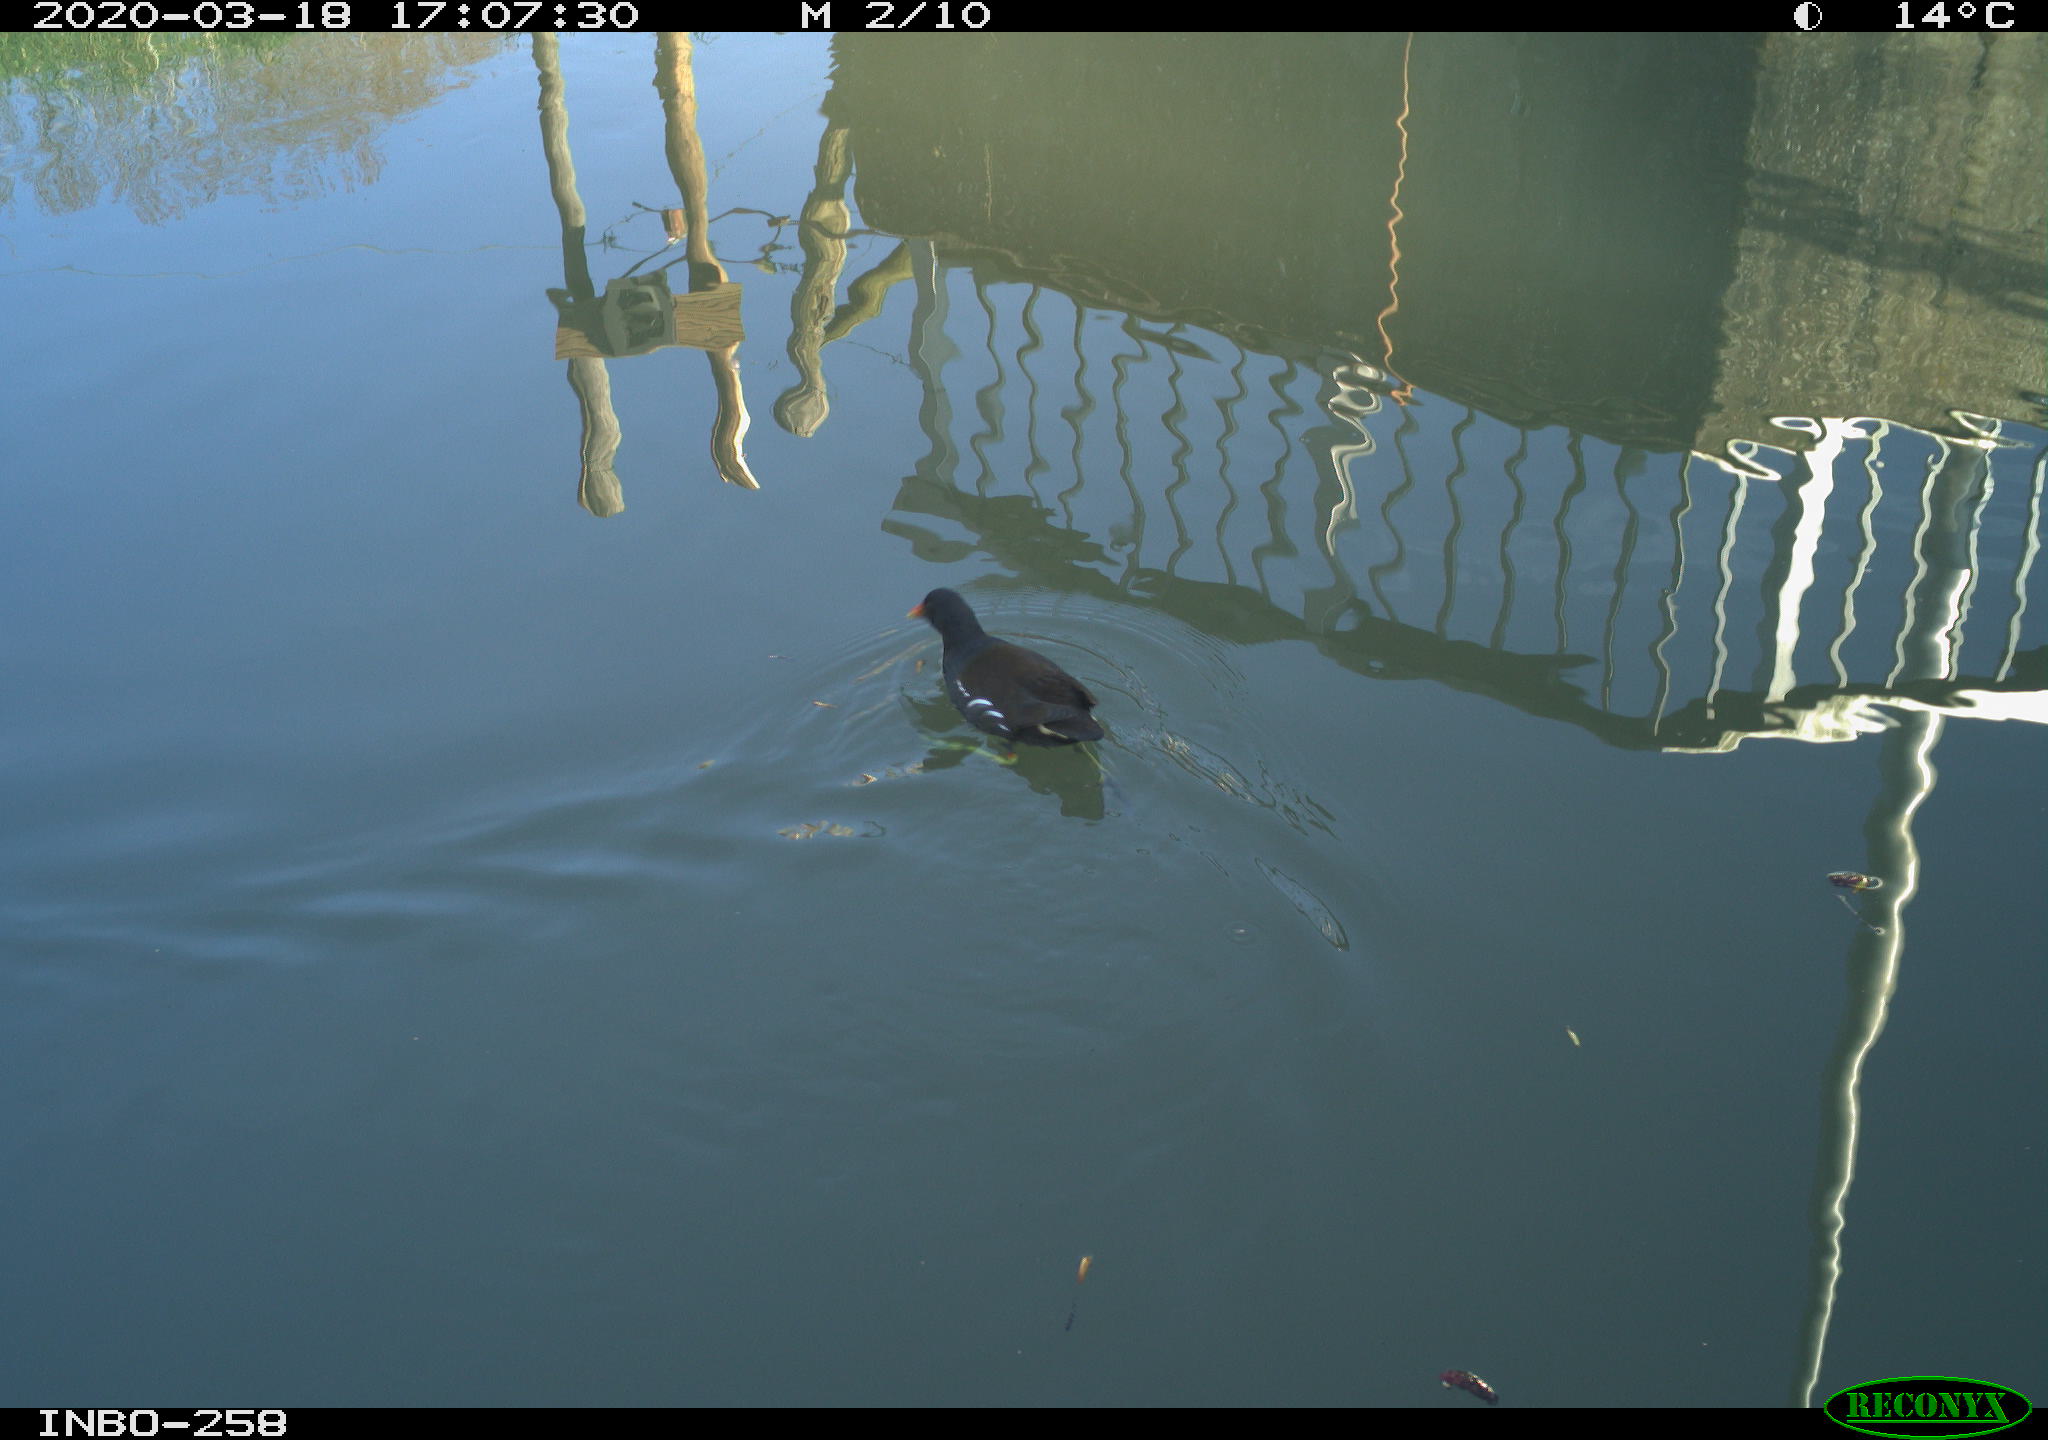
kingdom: Animalia
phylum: Chordata
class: Aves
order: Gruiformes
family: Rallidae
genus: Gallinula
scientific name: Gallinula chloropus
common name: Common moorhen
